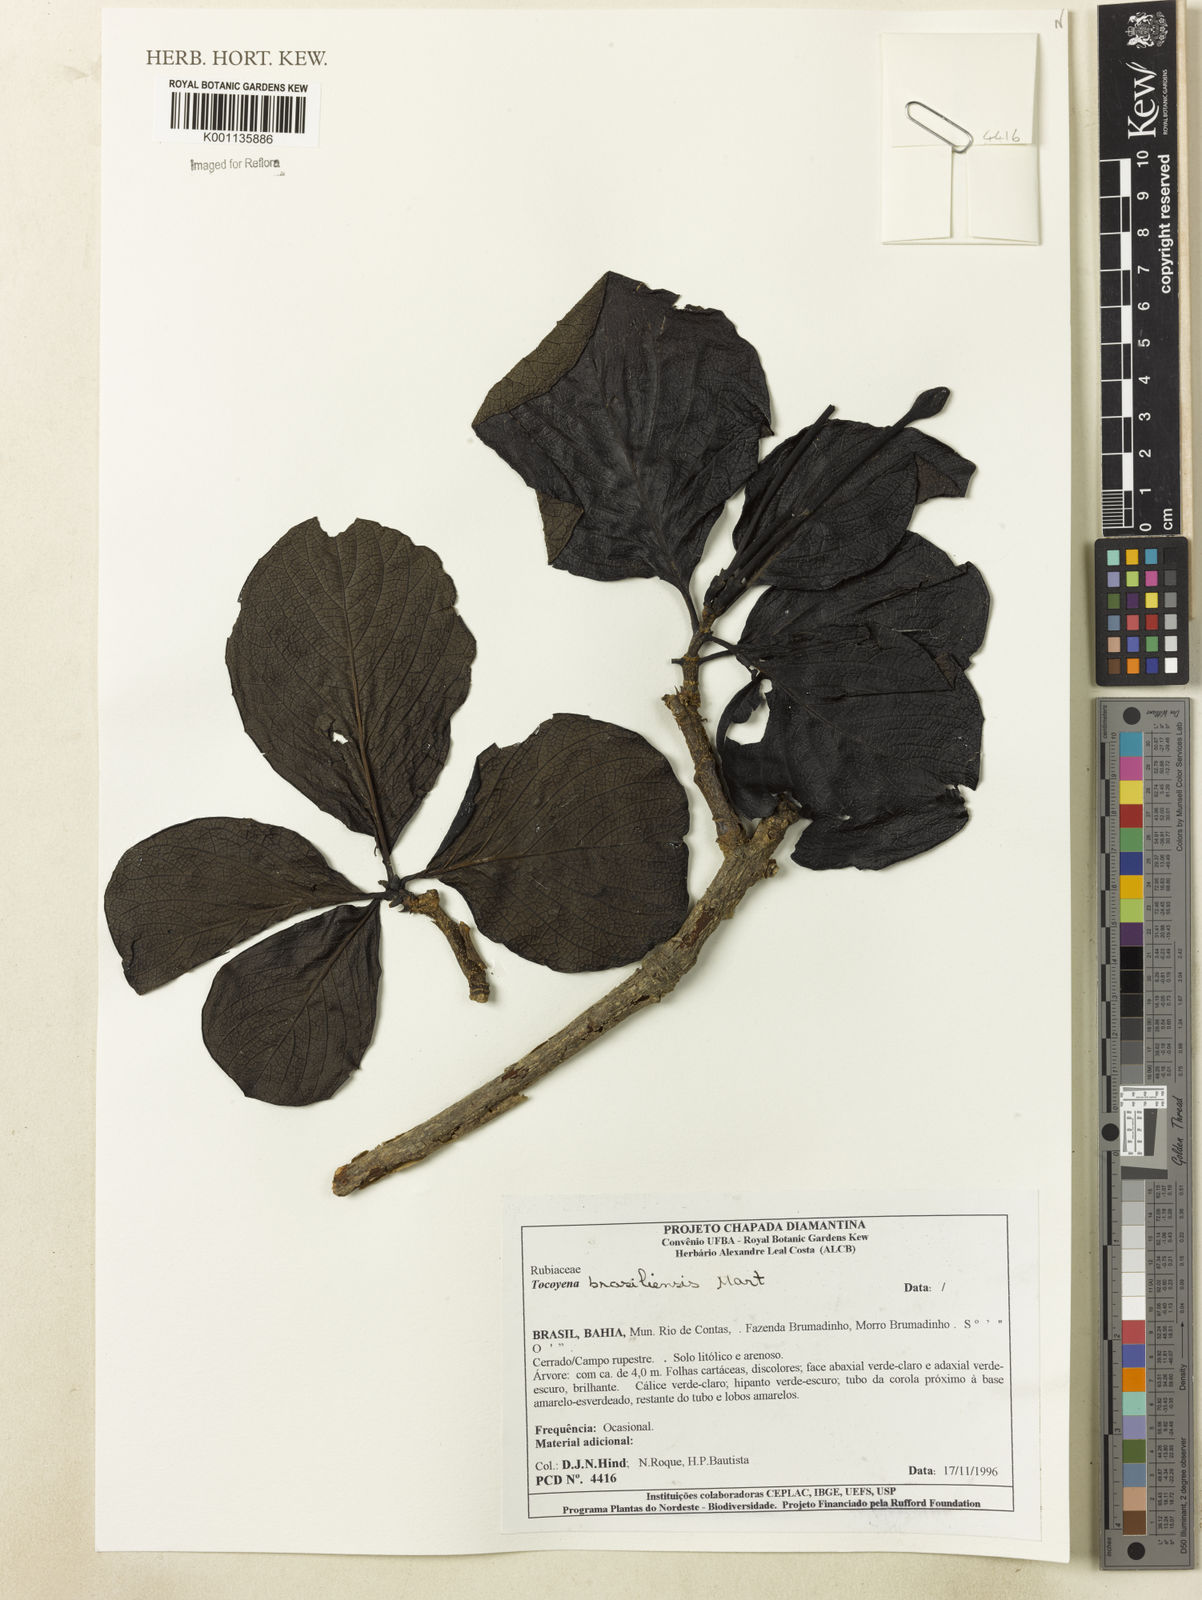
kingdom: Plantae
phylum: Tracheophyta
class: Magnoliopsida
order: Gentianales
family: Rubiaceae
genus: Tocoyena
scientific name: Tocoyena sprucei
